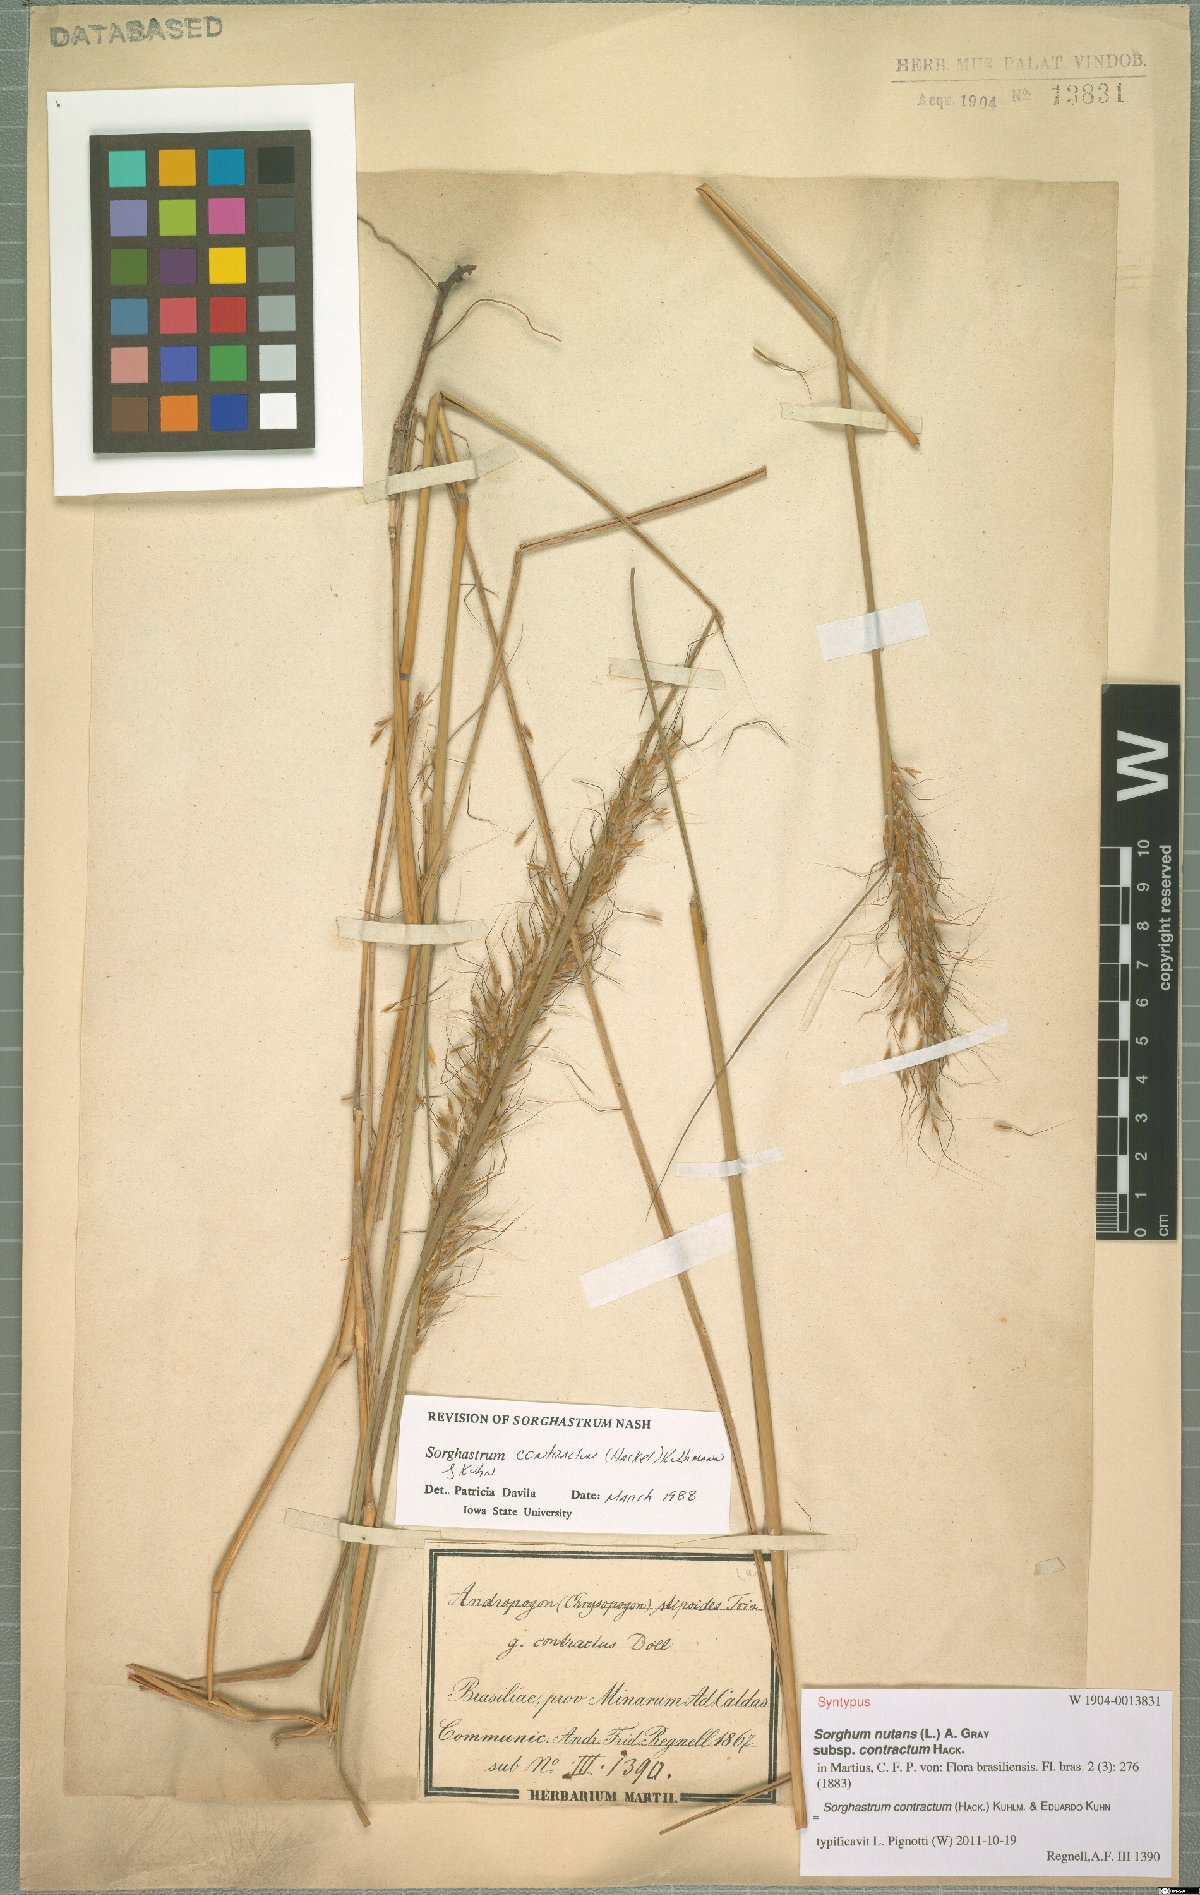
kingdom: Plantae
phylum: Tracheophyta
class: Liliopsida
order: Poales
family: Poaceae
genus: Sorghastrum
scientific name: Sorghastrum contractum
